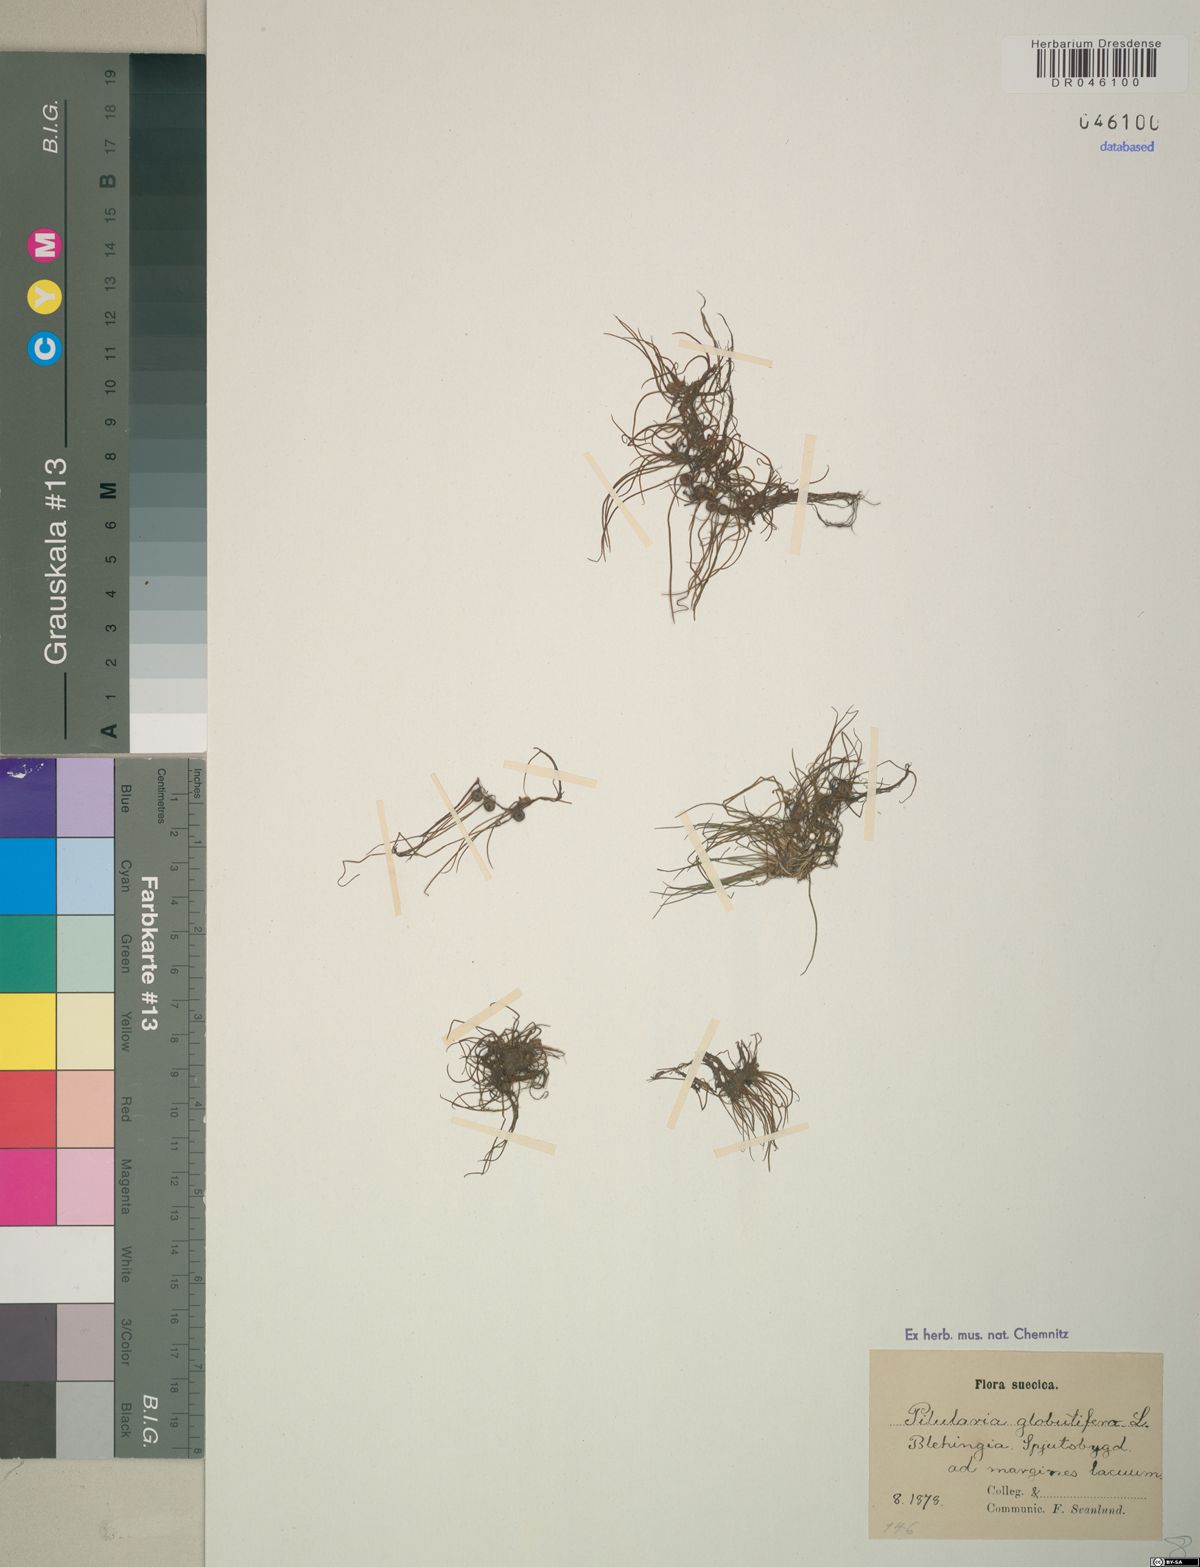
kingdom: Plantae
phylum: Tracheophyta
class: Polypodiopsida
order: Salviniales
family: Marsileaceae
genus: Pilularia
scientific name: Pilularia globulifera
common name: Pillwort
